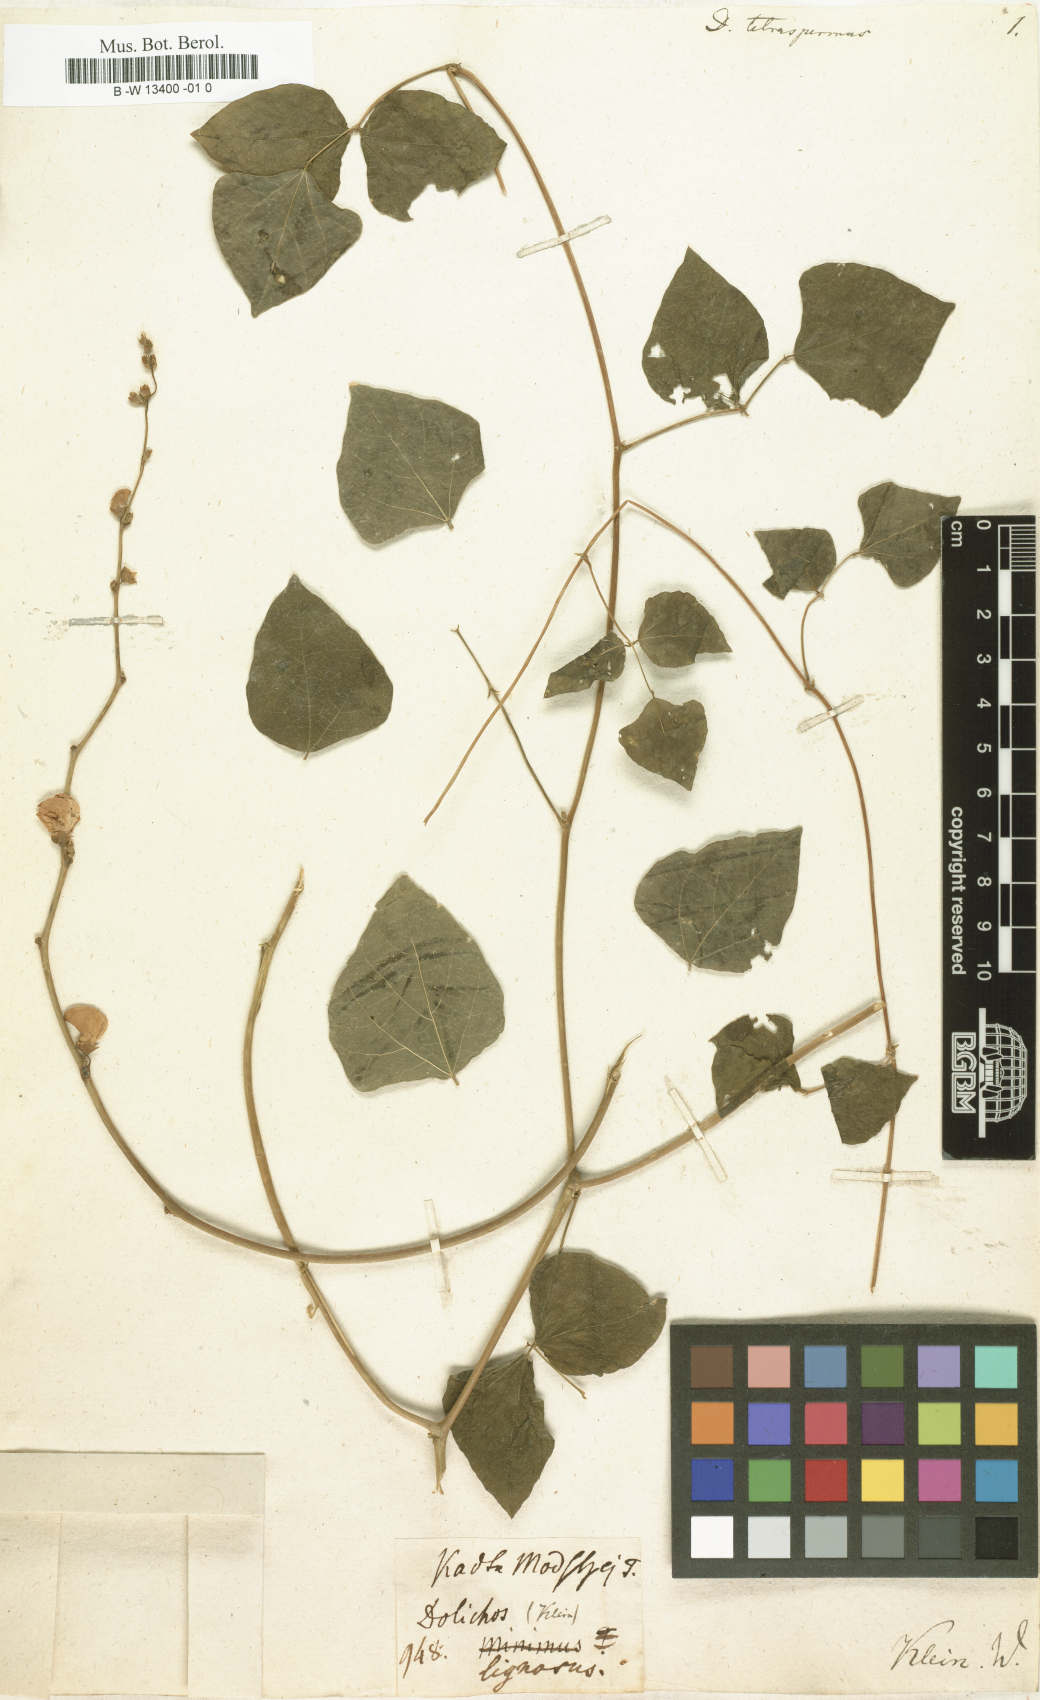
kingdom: Plantae
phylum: Tracheophyta
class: Magnoliopsida
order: Fabales
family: Fabaceae
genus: Lablab
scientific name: Lablab purpureus
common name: Lablab-bean
